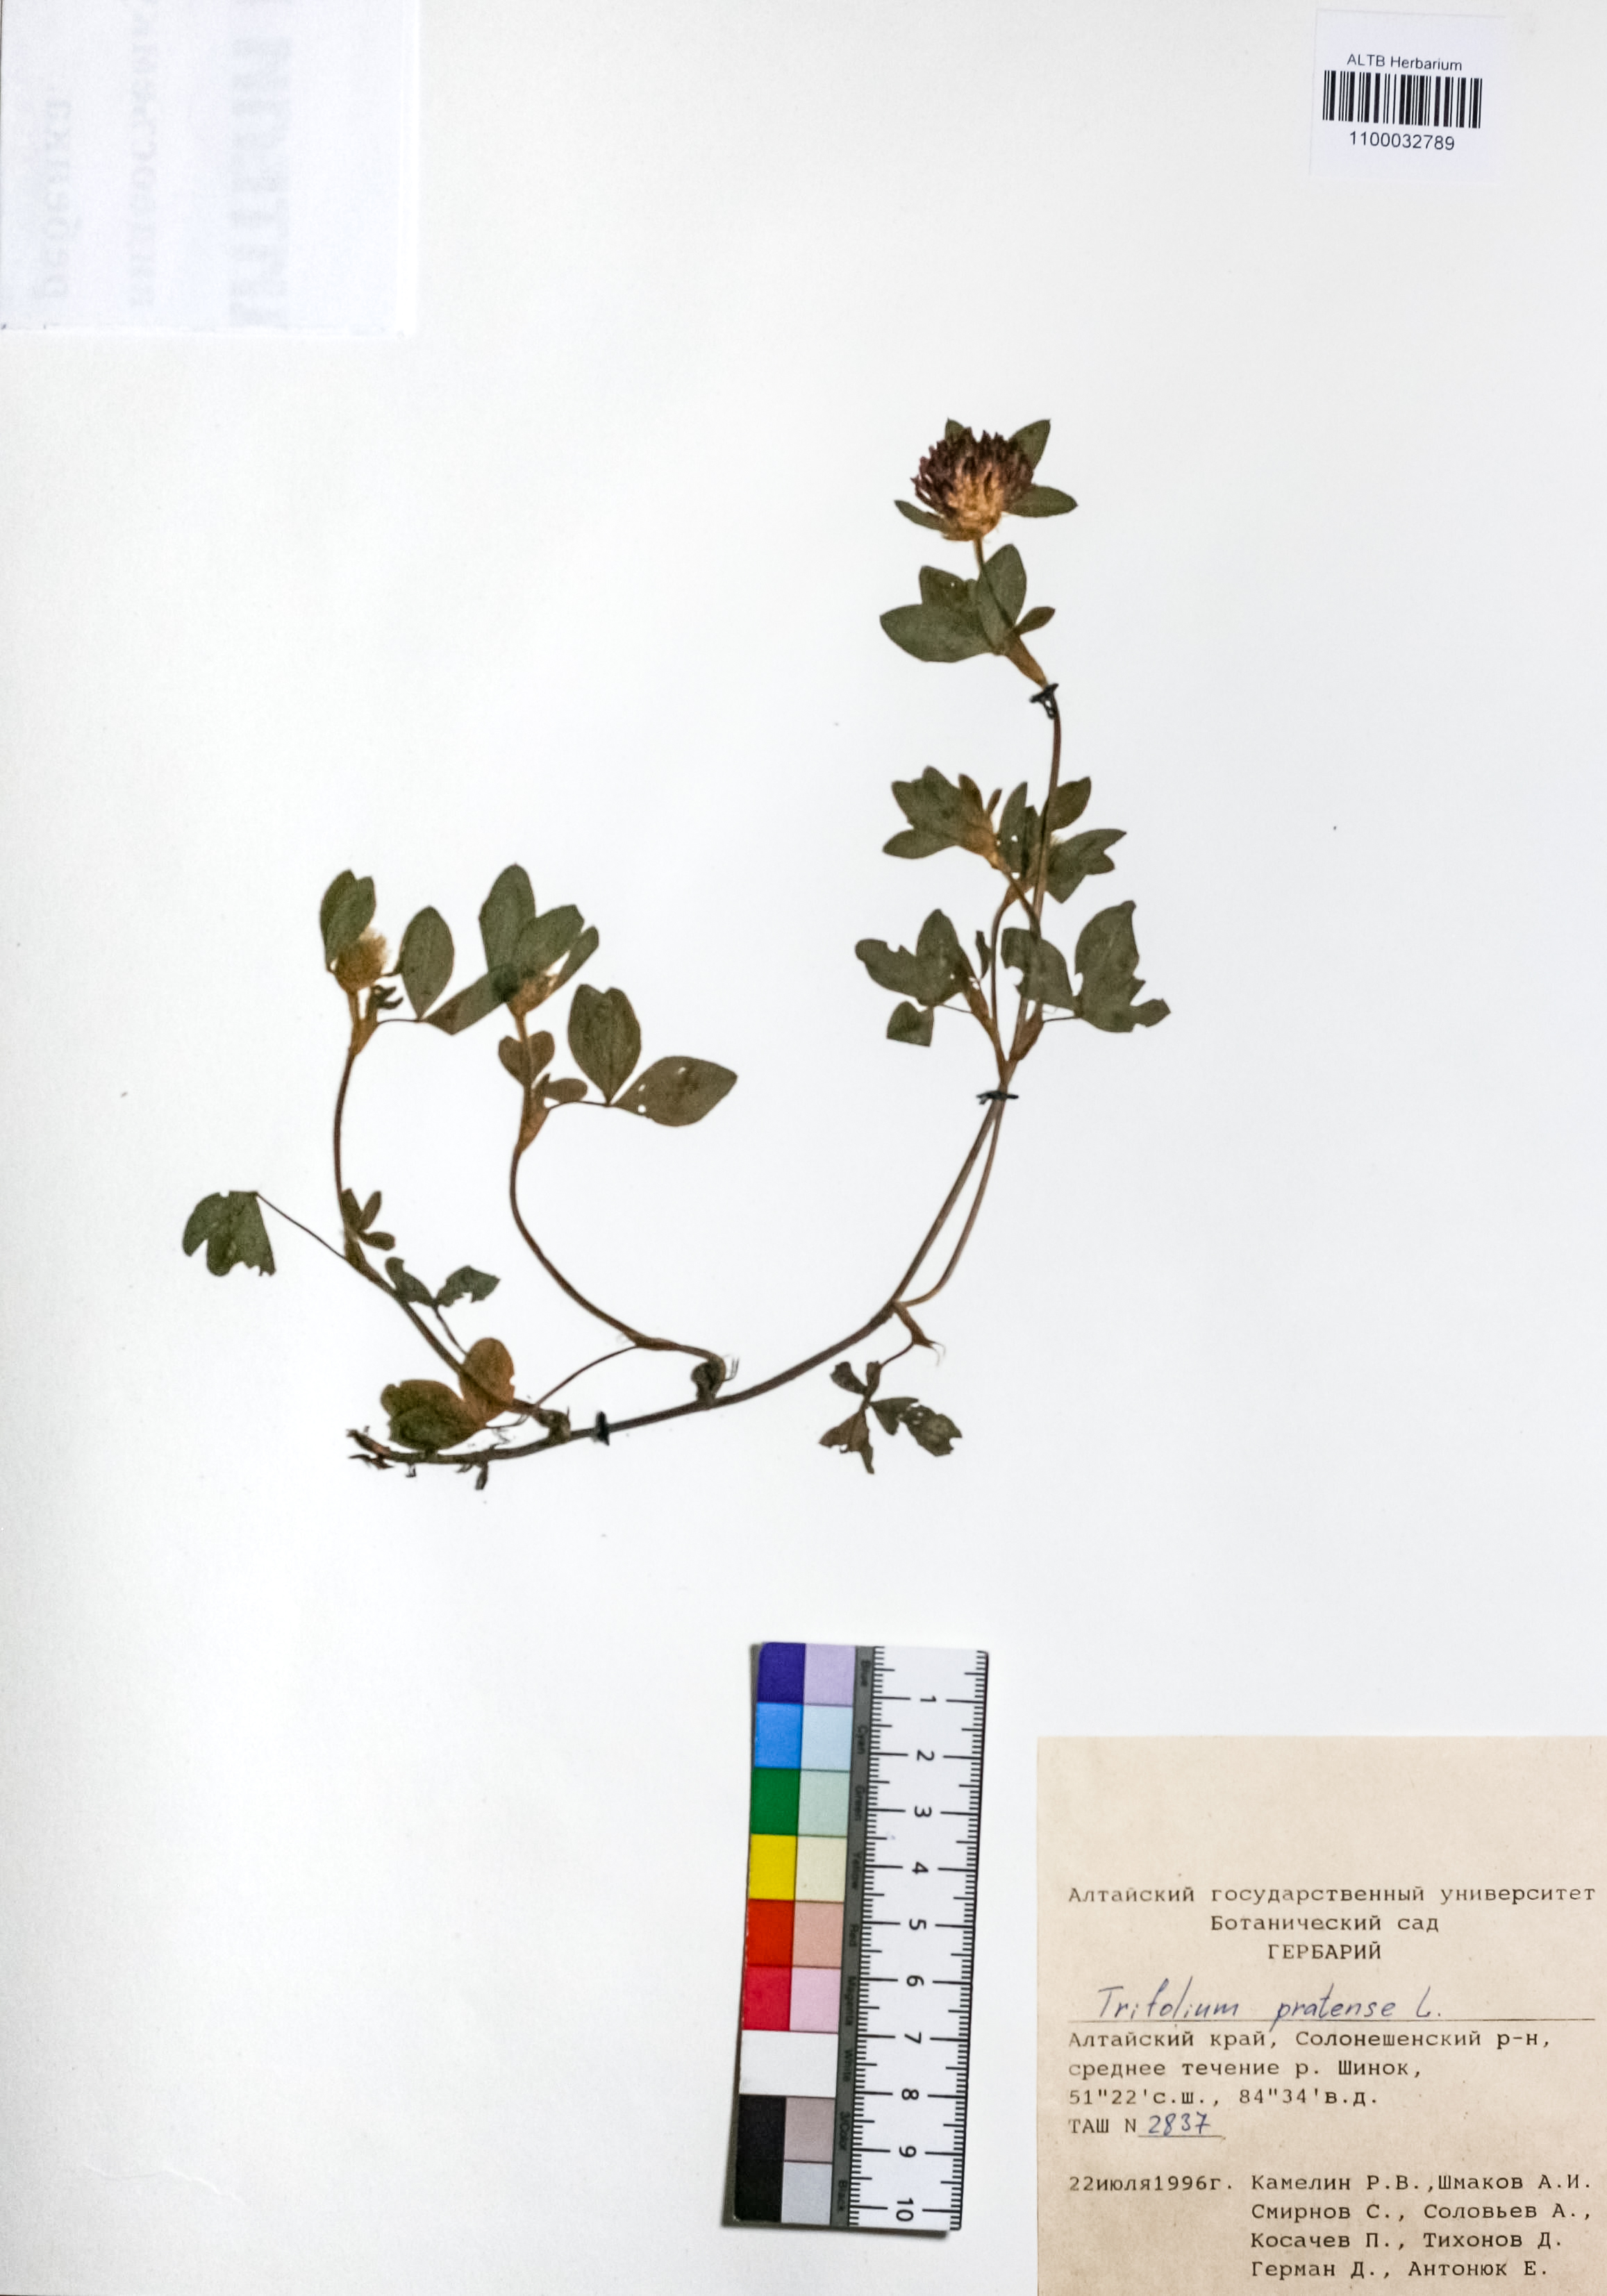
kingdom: Plantae
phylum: Tracheophyta
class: Magnoliopsida
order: Fabales
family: Fabaceae
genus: Trifolium
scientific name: Trifolium pratense
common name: Red clover
